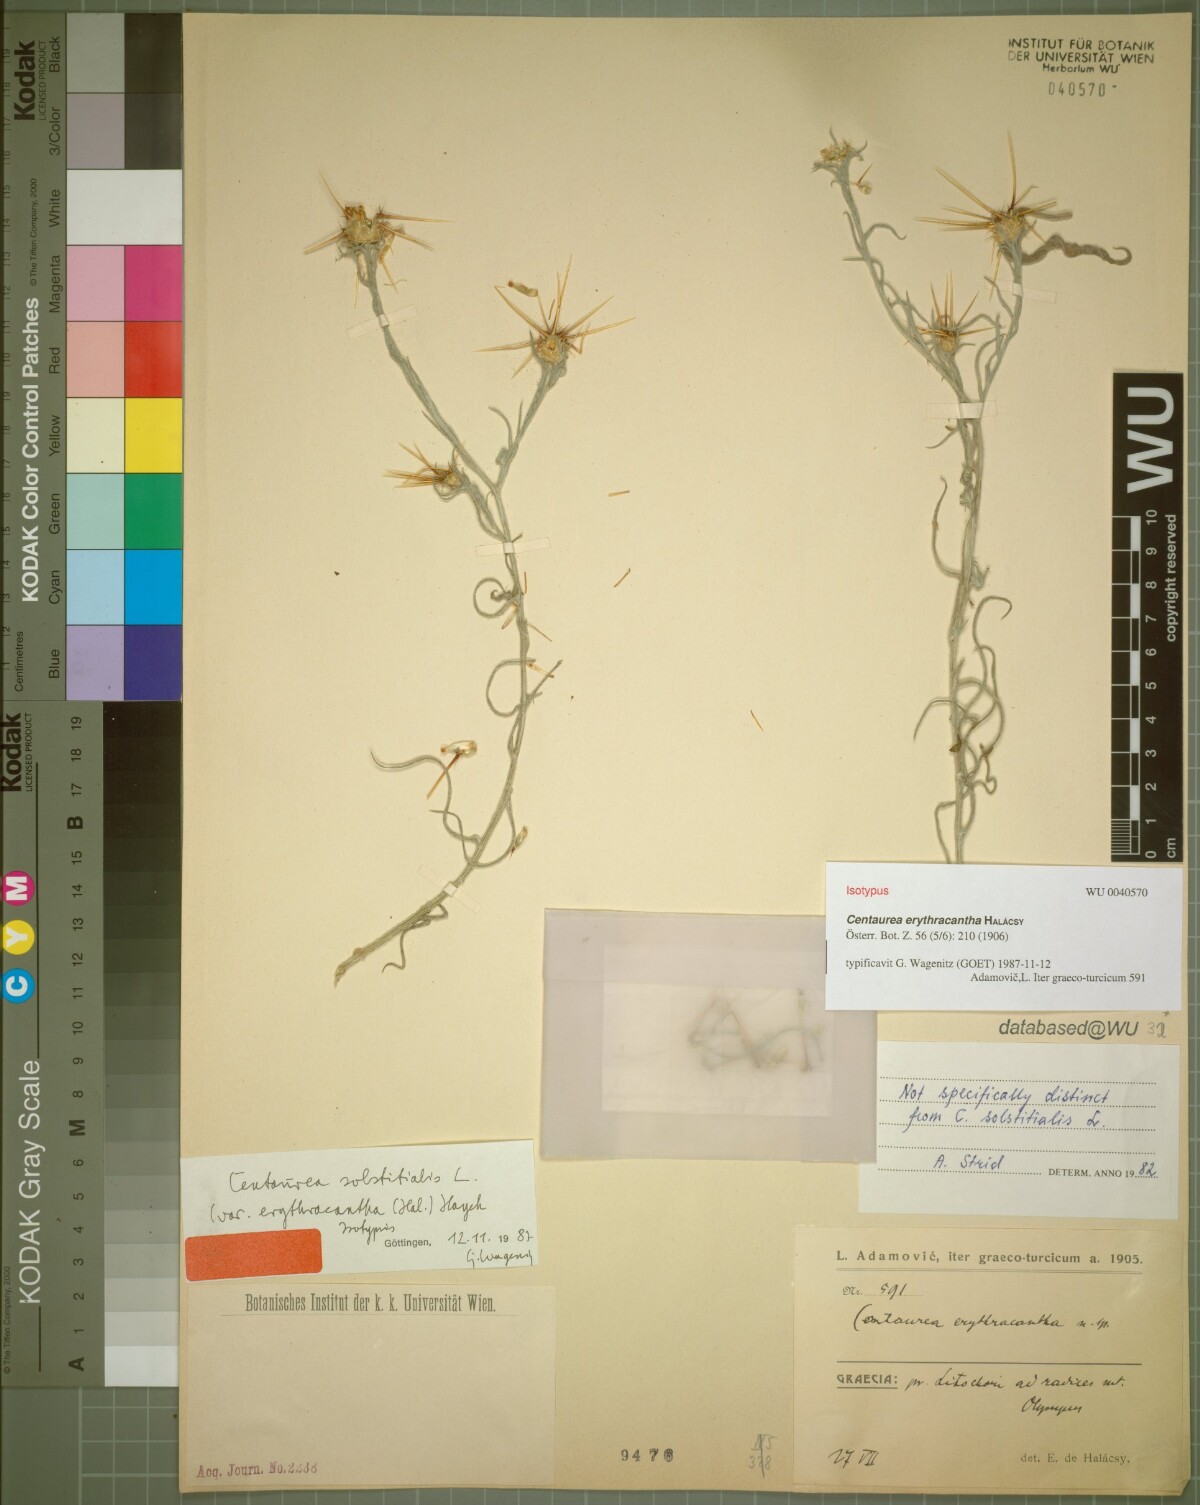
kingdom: Plantae
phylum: Tracheophyta
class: Magnoliopsida
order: Asterales
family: Asteraceae
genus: Centaurea
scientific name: Centaurea solstitialis
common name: Yellow star-thistle
